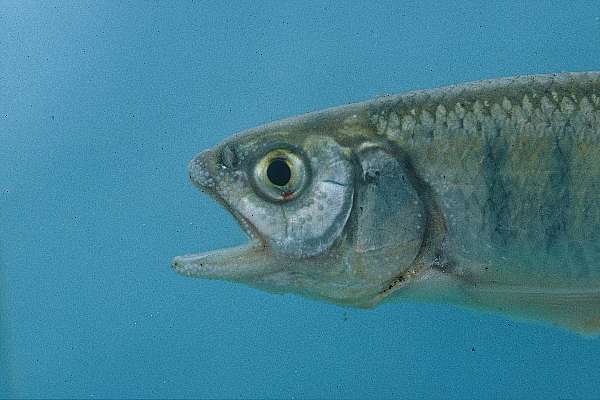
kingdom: Animalia
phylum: Chordata
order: Cypriniformes
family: Cyprinidae
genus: Opsaridium
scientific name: Opsaridium tweddleorum
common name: Dwarf sanjika
